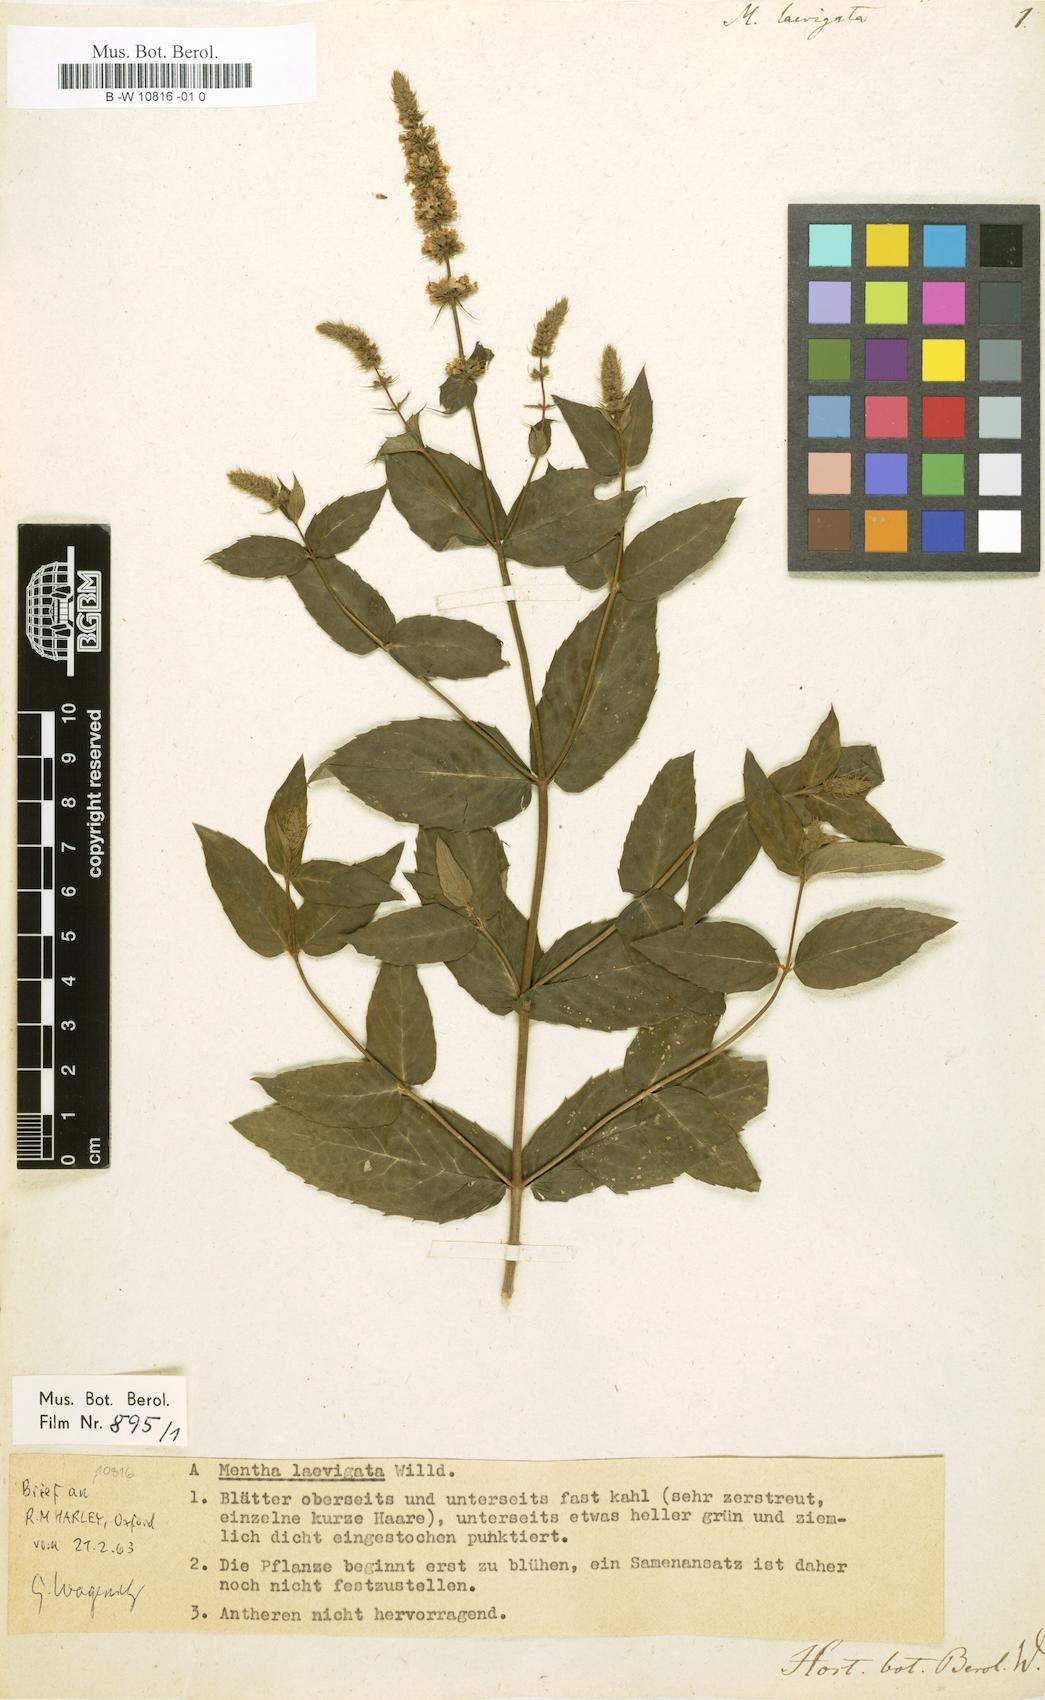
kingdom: Plantae
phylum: Tracheophyta
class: Magnoliopsida
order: Lamiales
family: Lamiaceae
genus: Mentha
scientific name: Mentha spicata
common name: Spearmint
